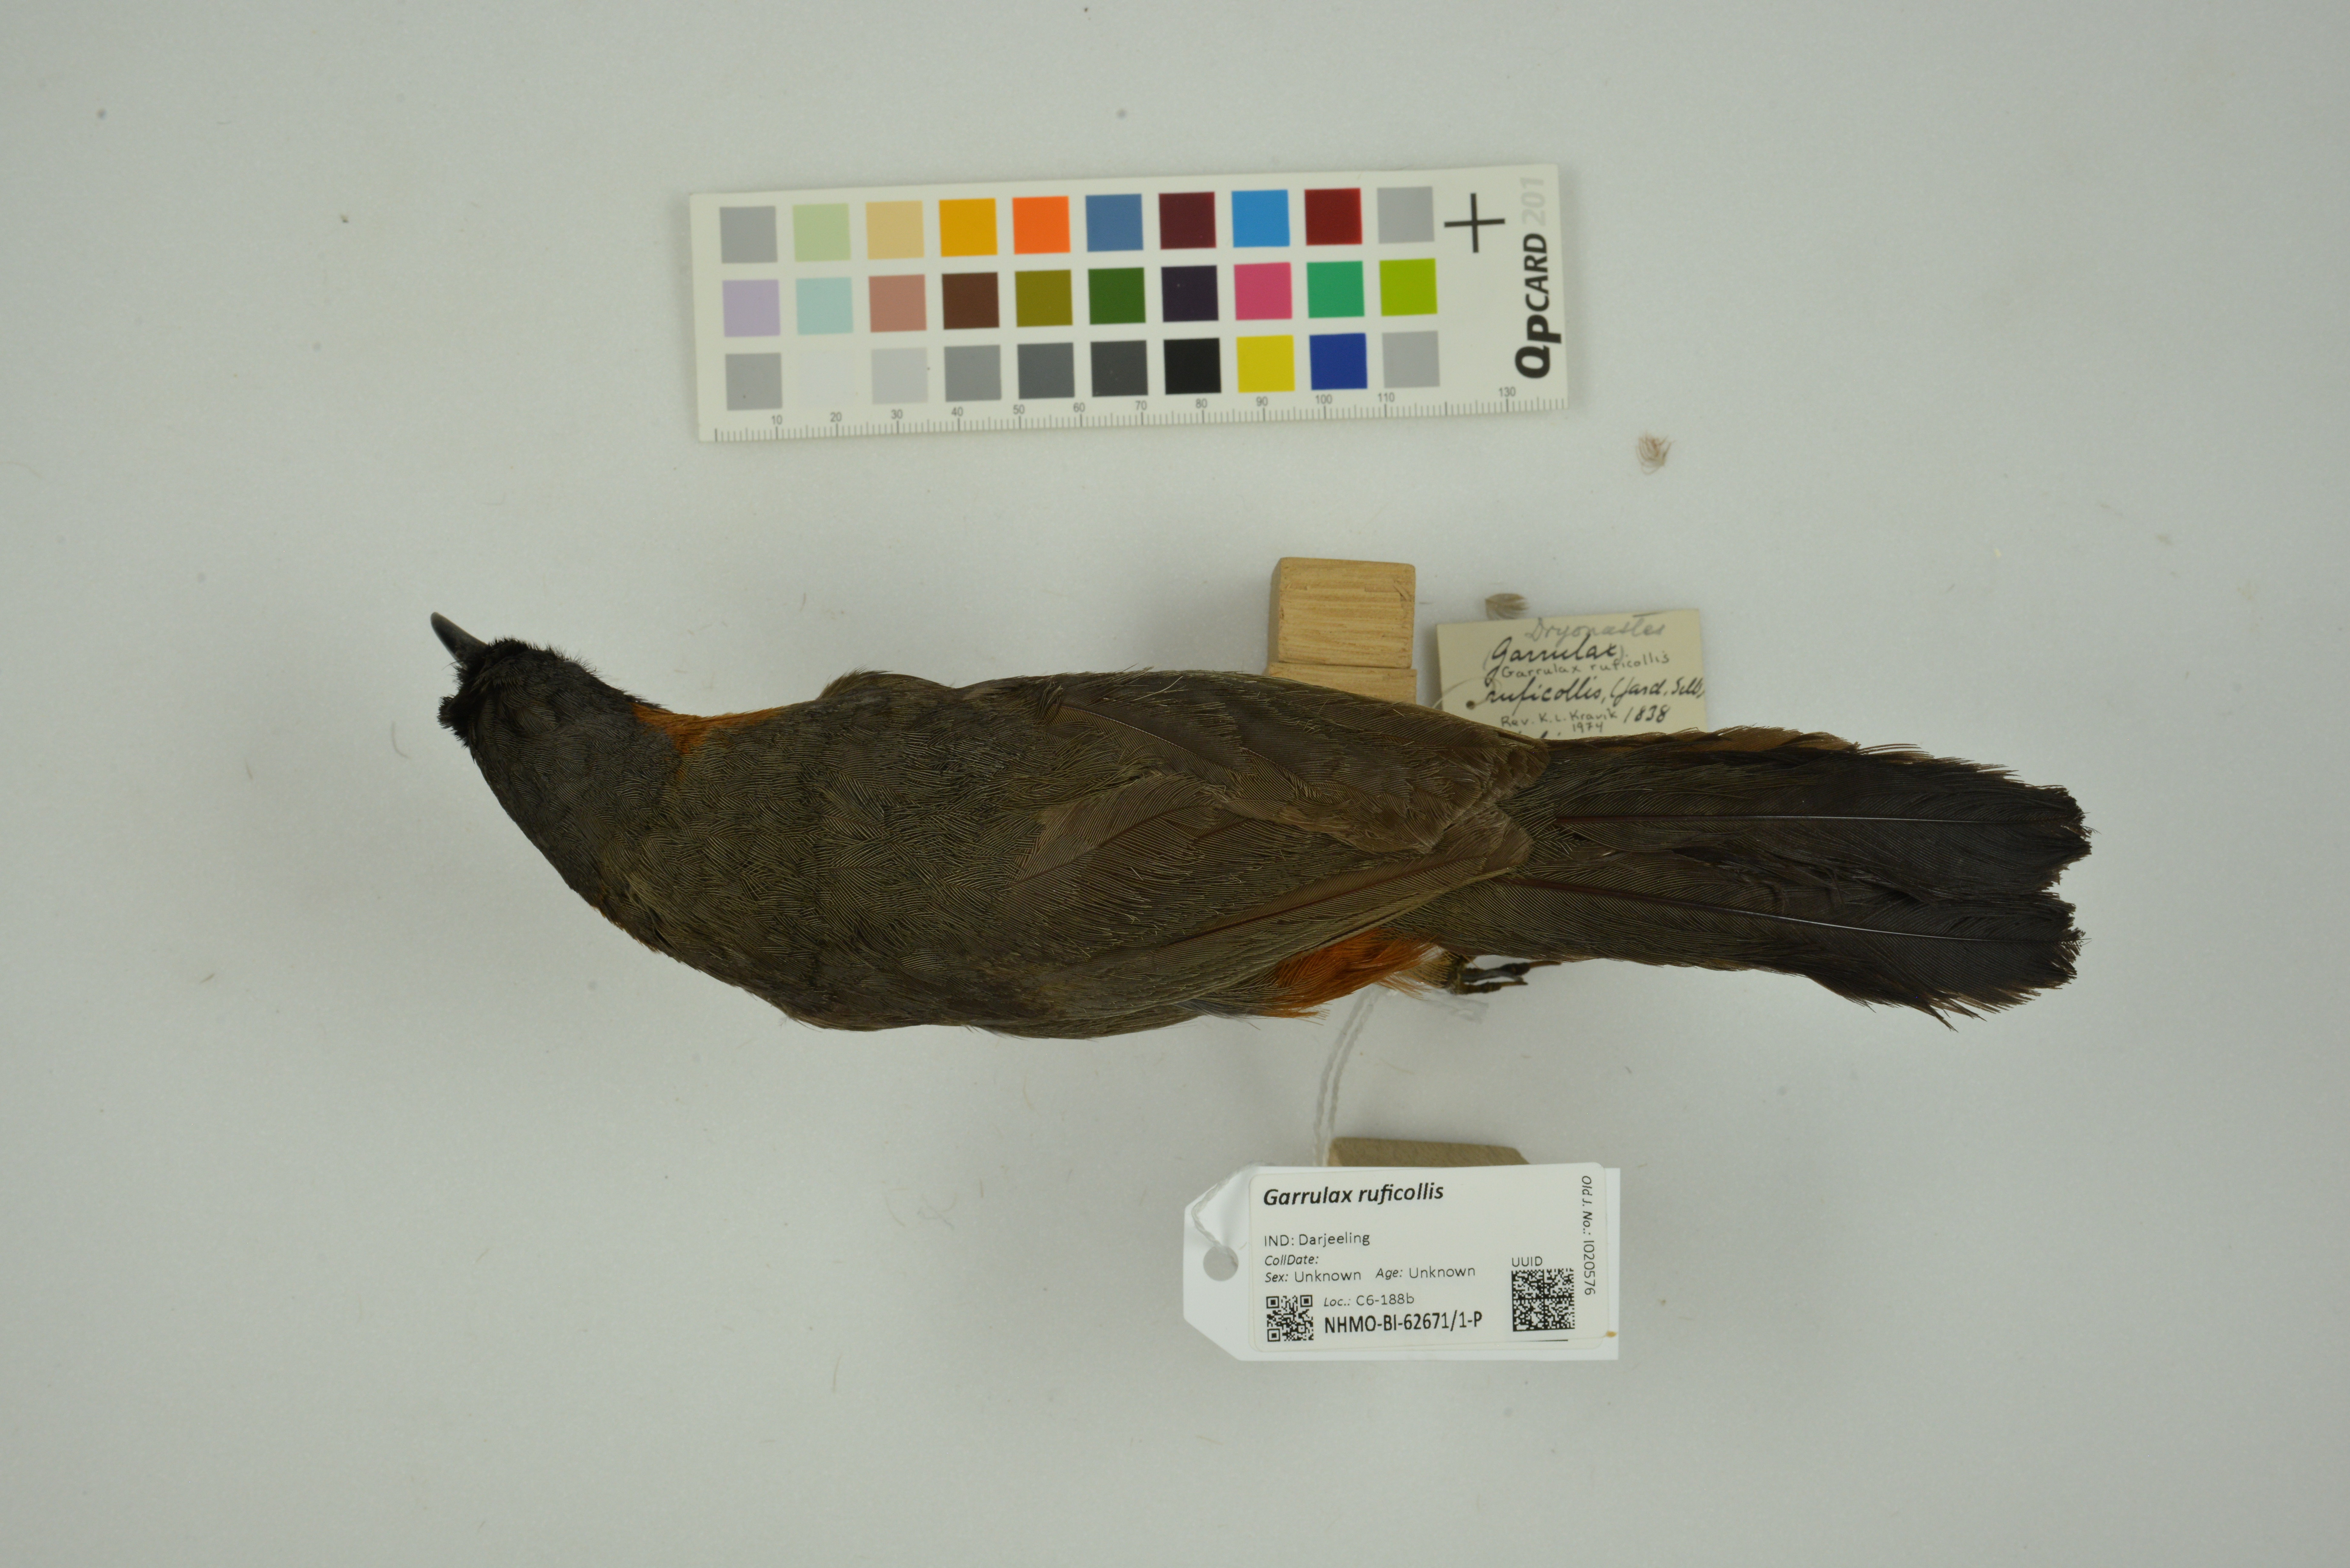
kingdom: Animalia
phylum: Chordata
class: Aves
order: Passeriformes
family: Leiothrichidae
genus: Garrulax
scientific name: Garrulax ruficollis
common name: Rufous-necked laughingthrush
